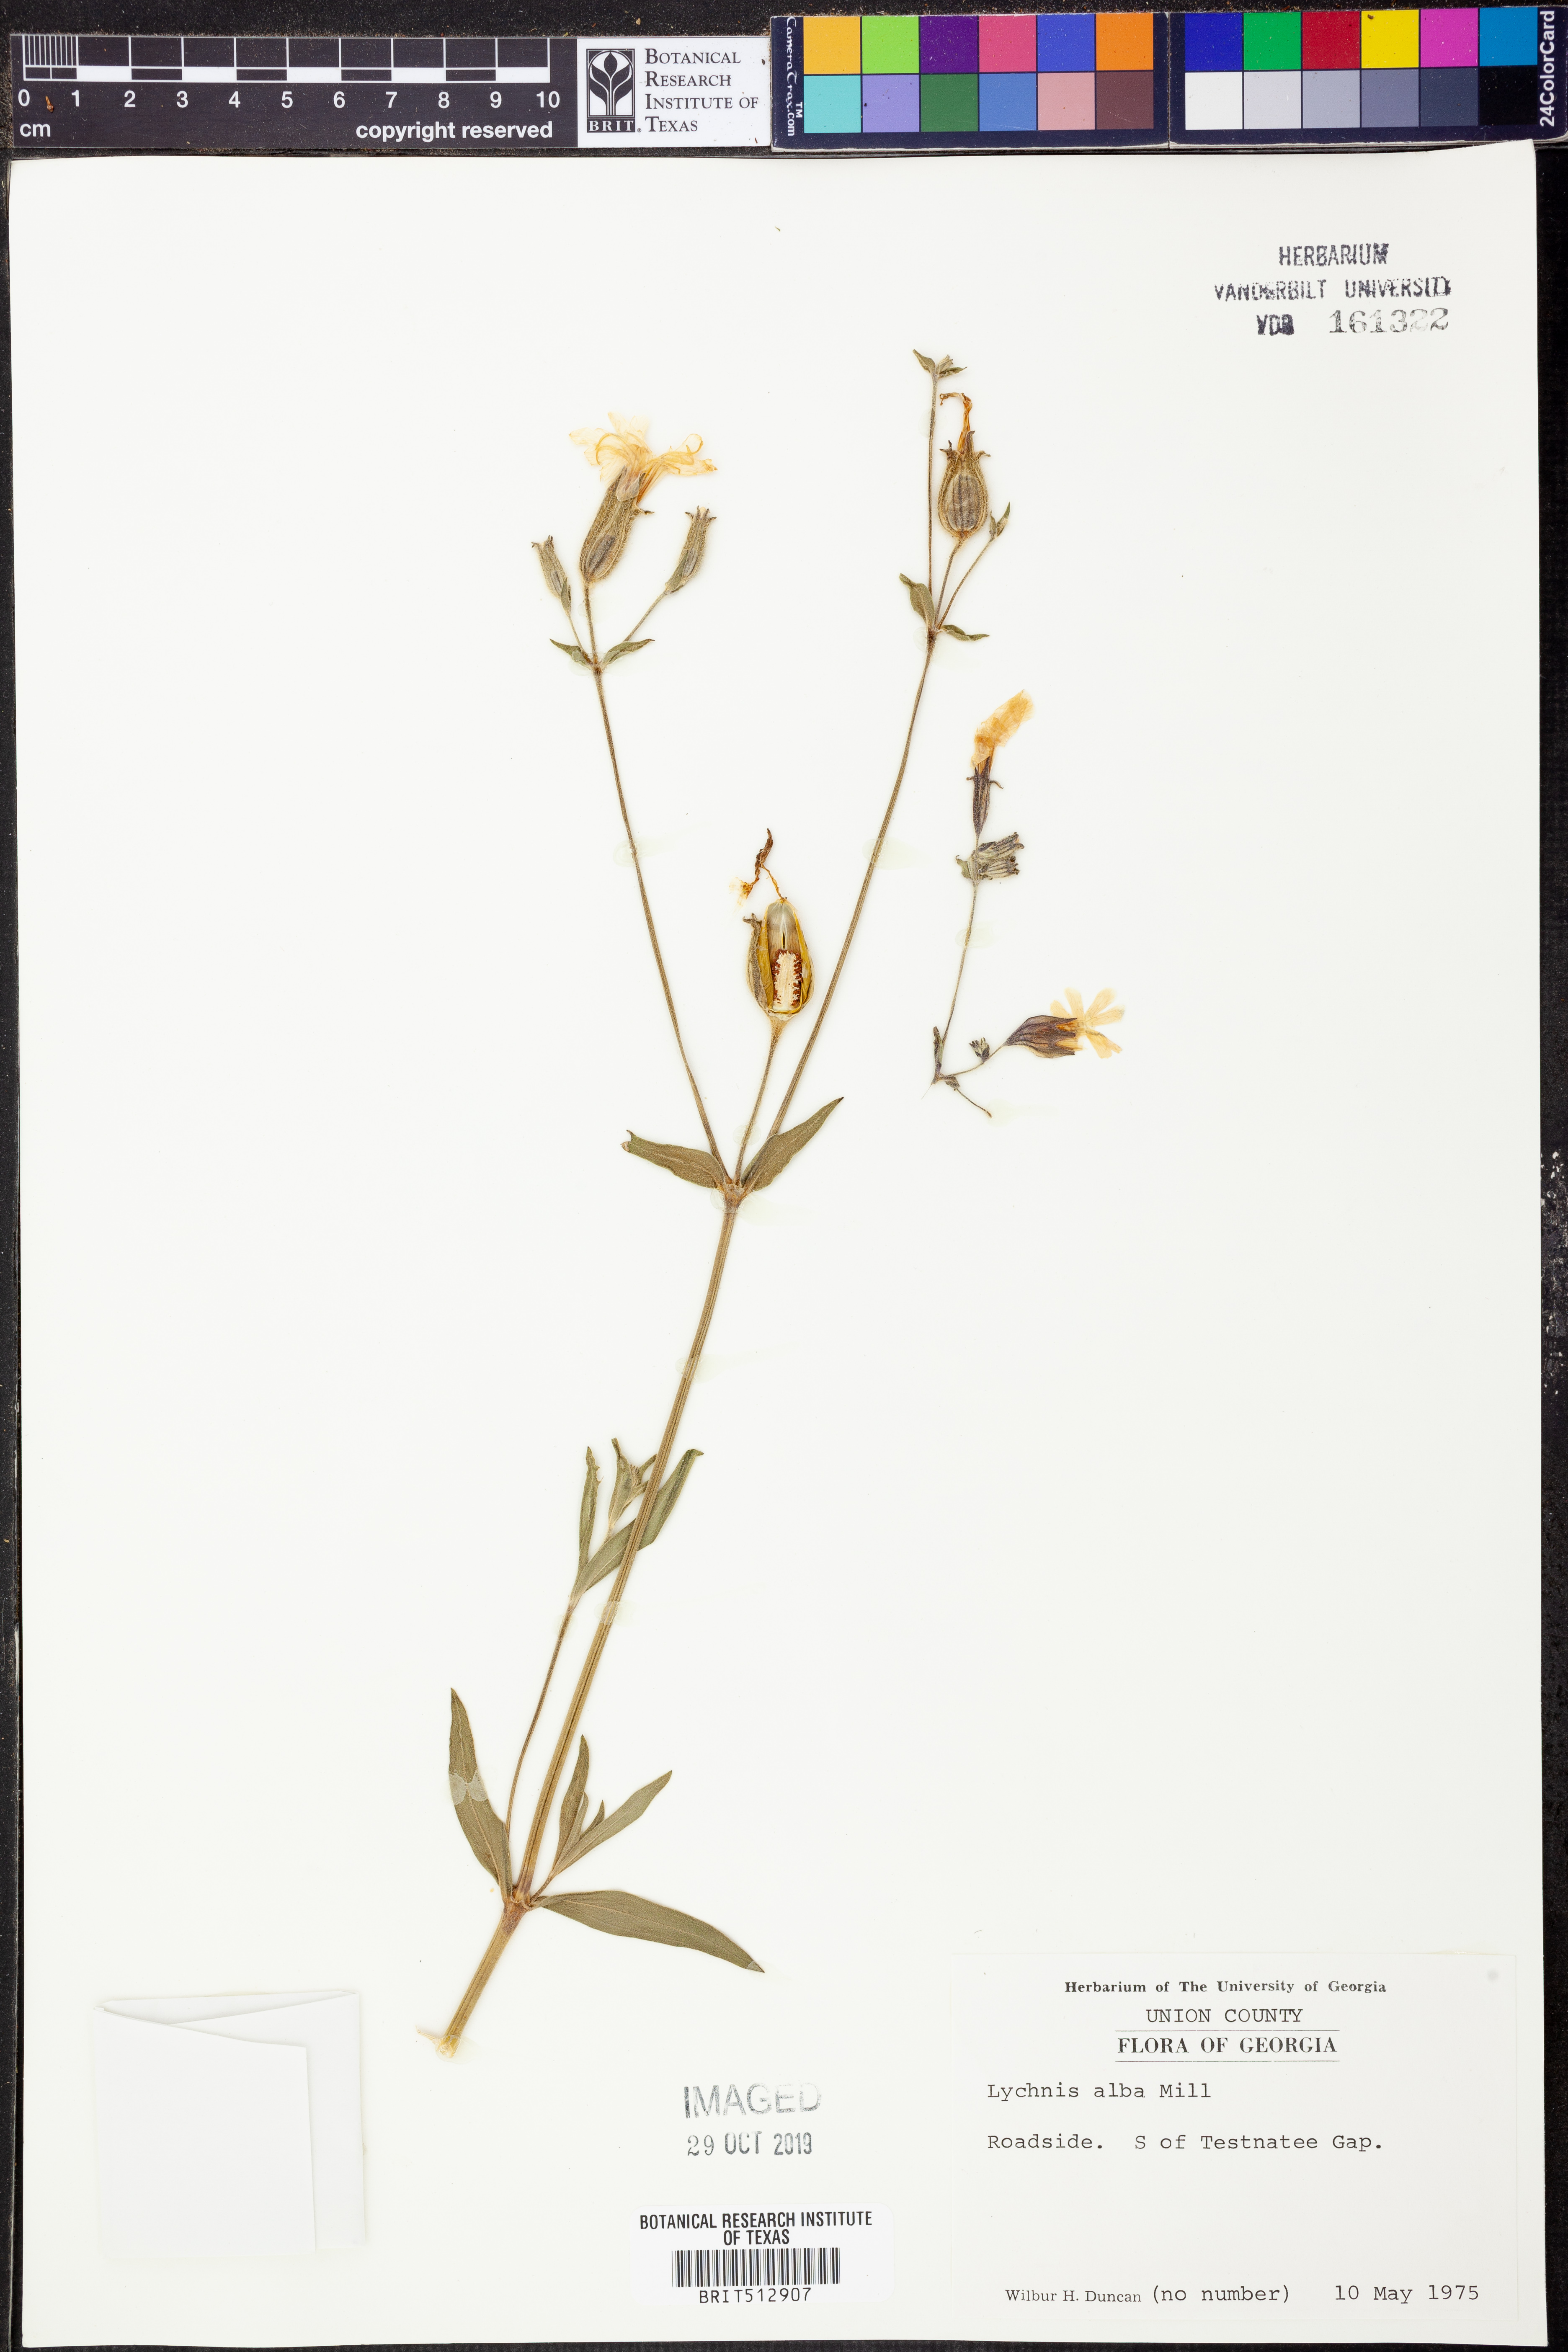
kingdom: Plantae
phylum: Tracheophyta
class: Magnoliopsida
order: Caryophyllales
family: Caryophyllaceae
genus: Silene
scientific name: Silene latifolia
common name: White campion
